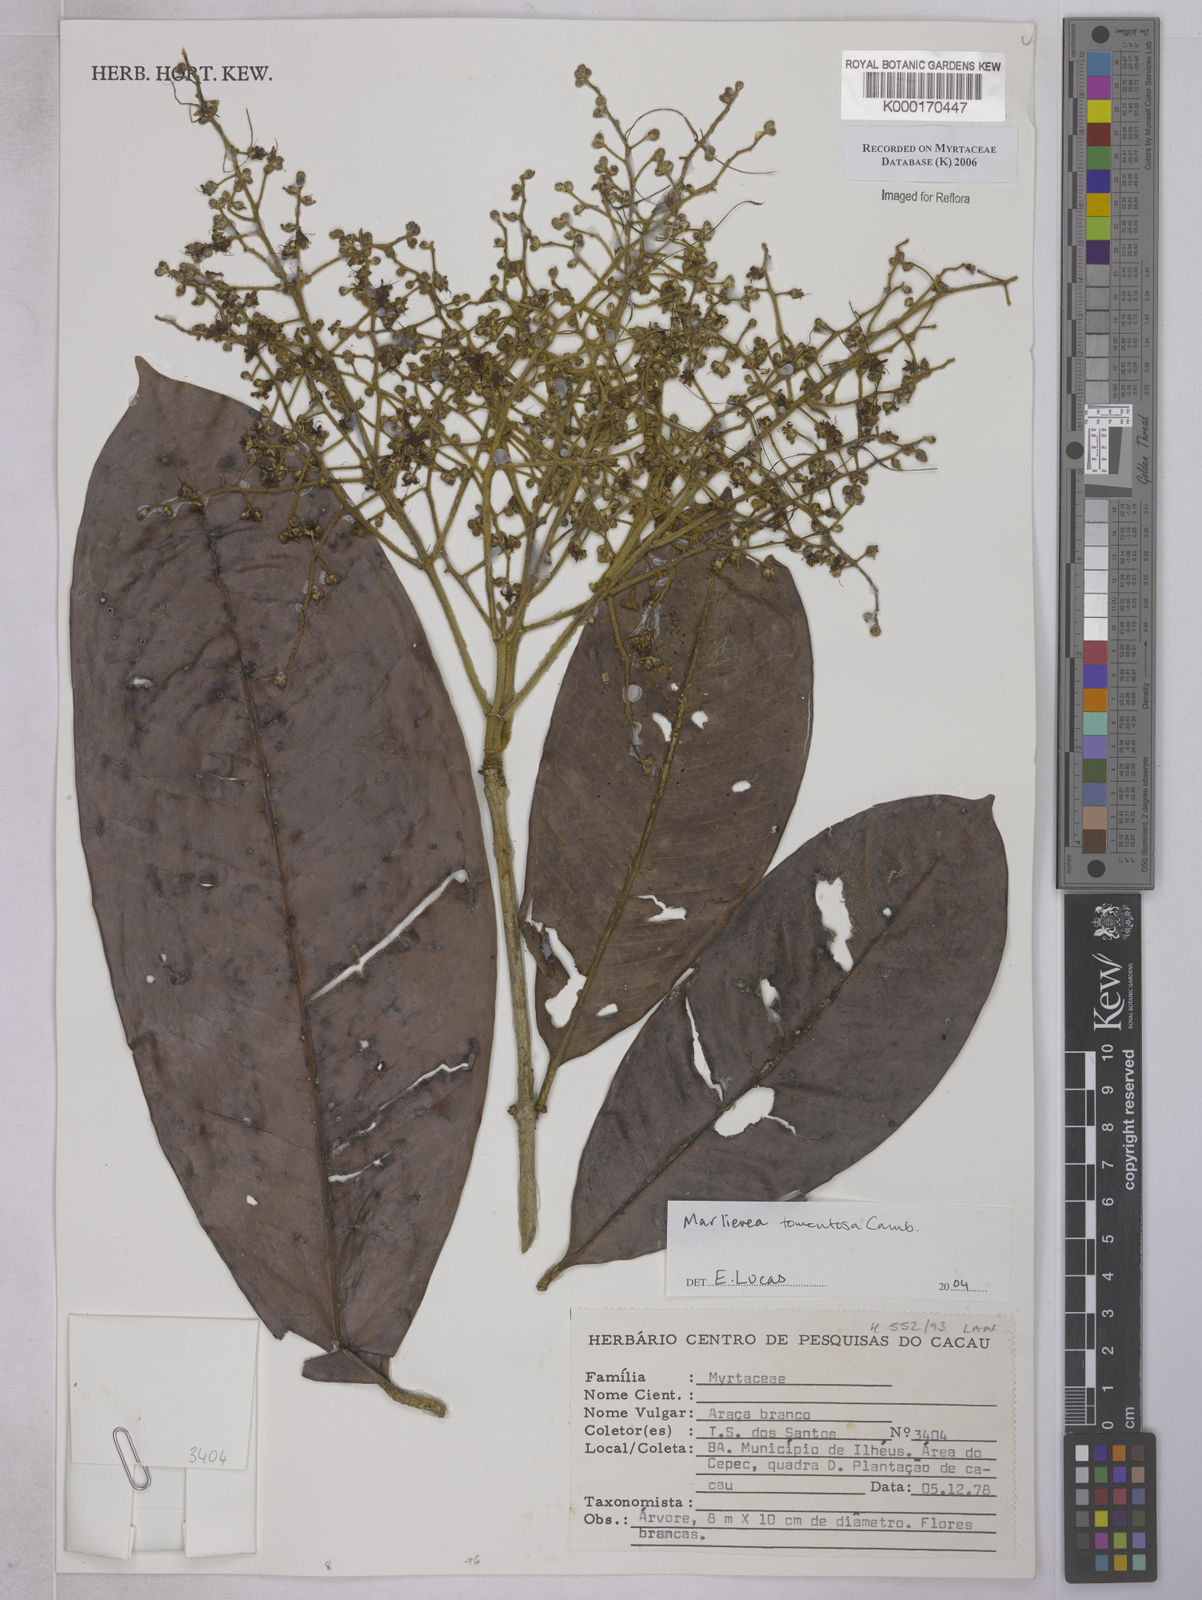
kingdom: Plantae
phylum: Tracheophyta
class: Magnoliopsida
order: Myrtales
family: Myrtaceae
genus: Myrcia
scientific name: Myrcia neotomentosa
